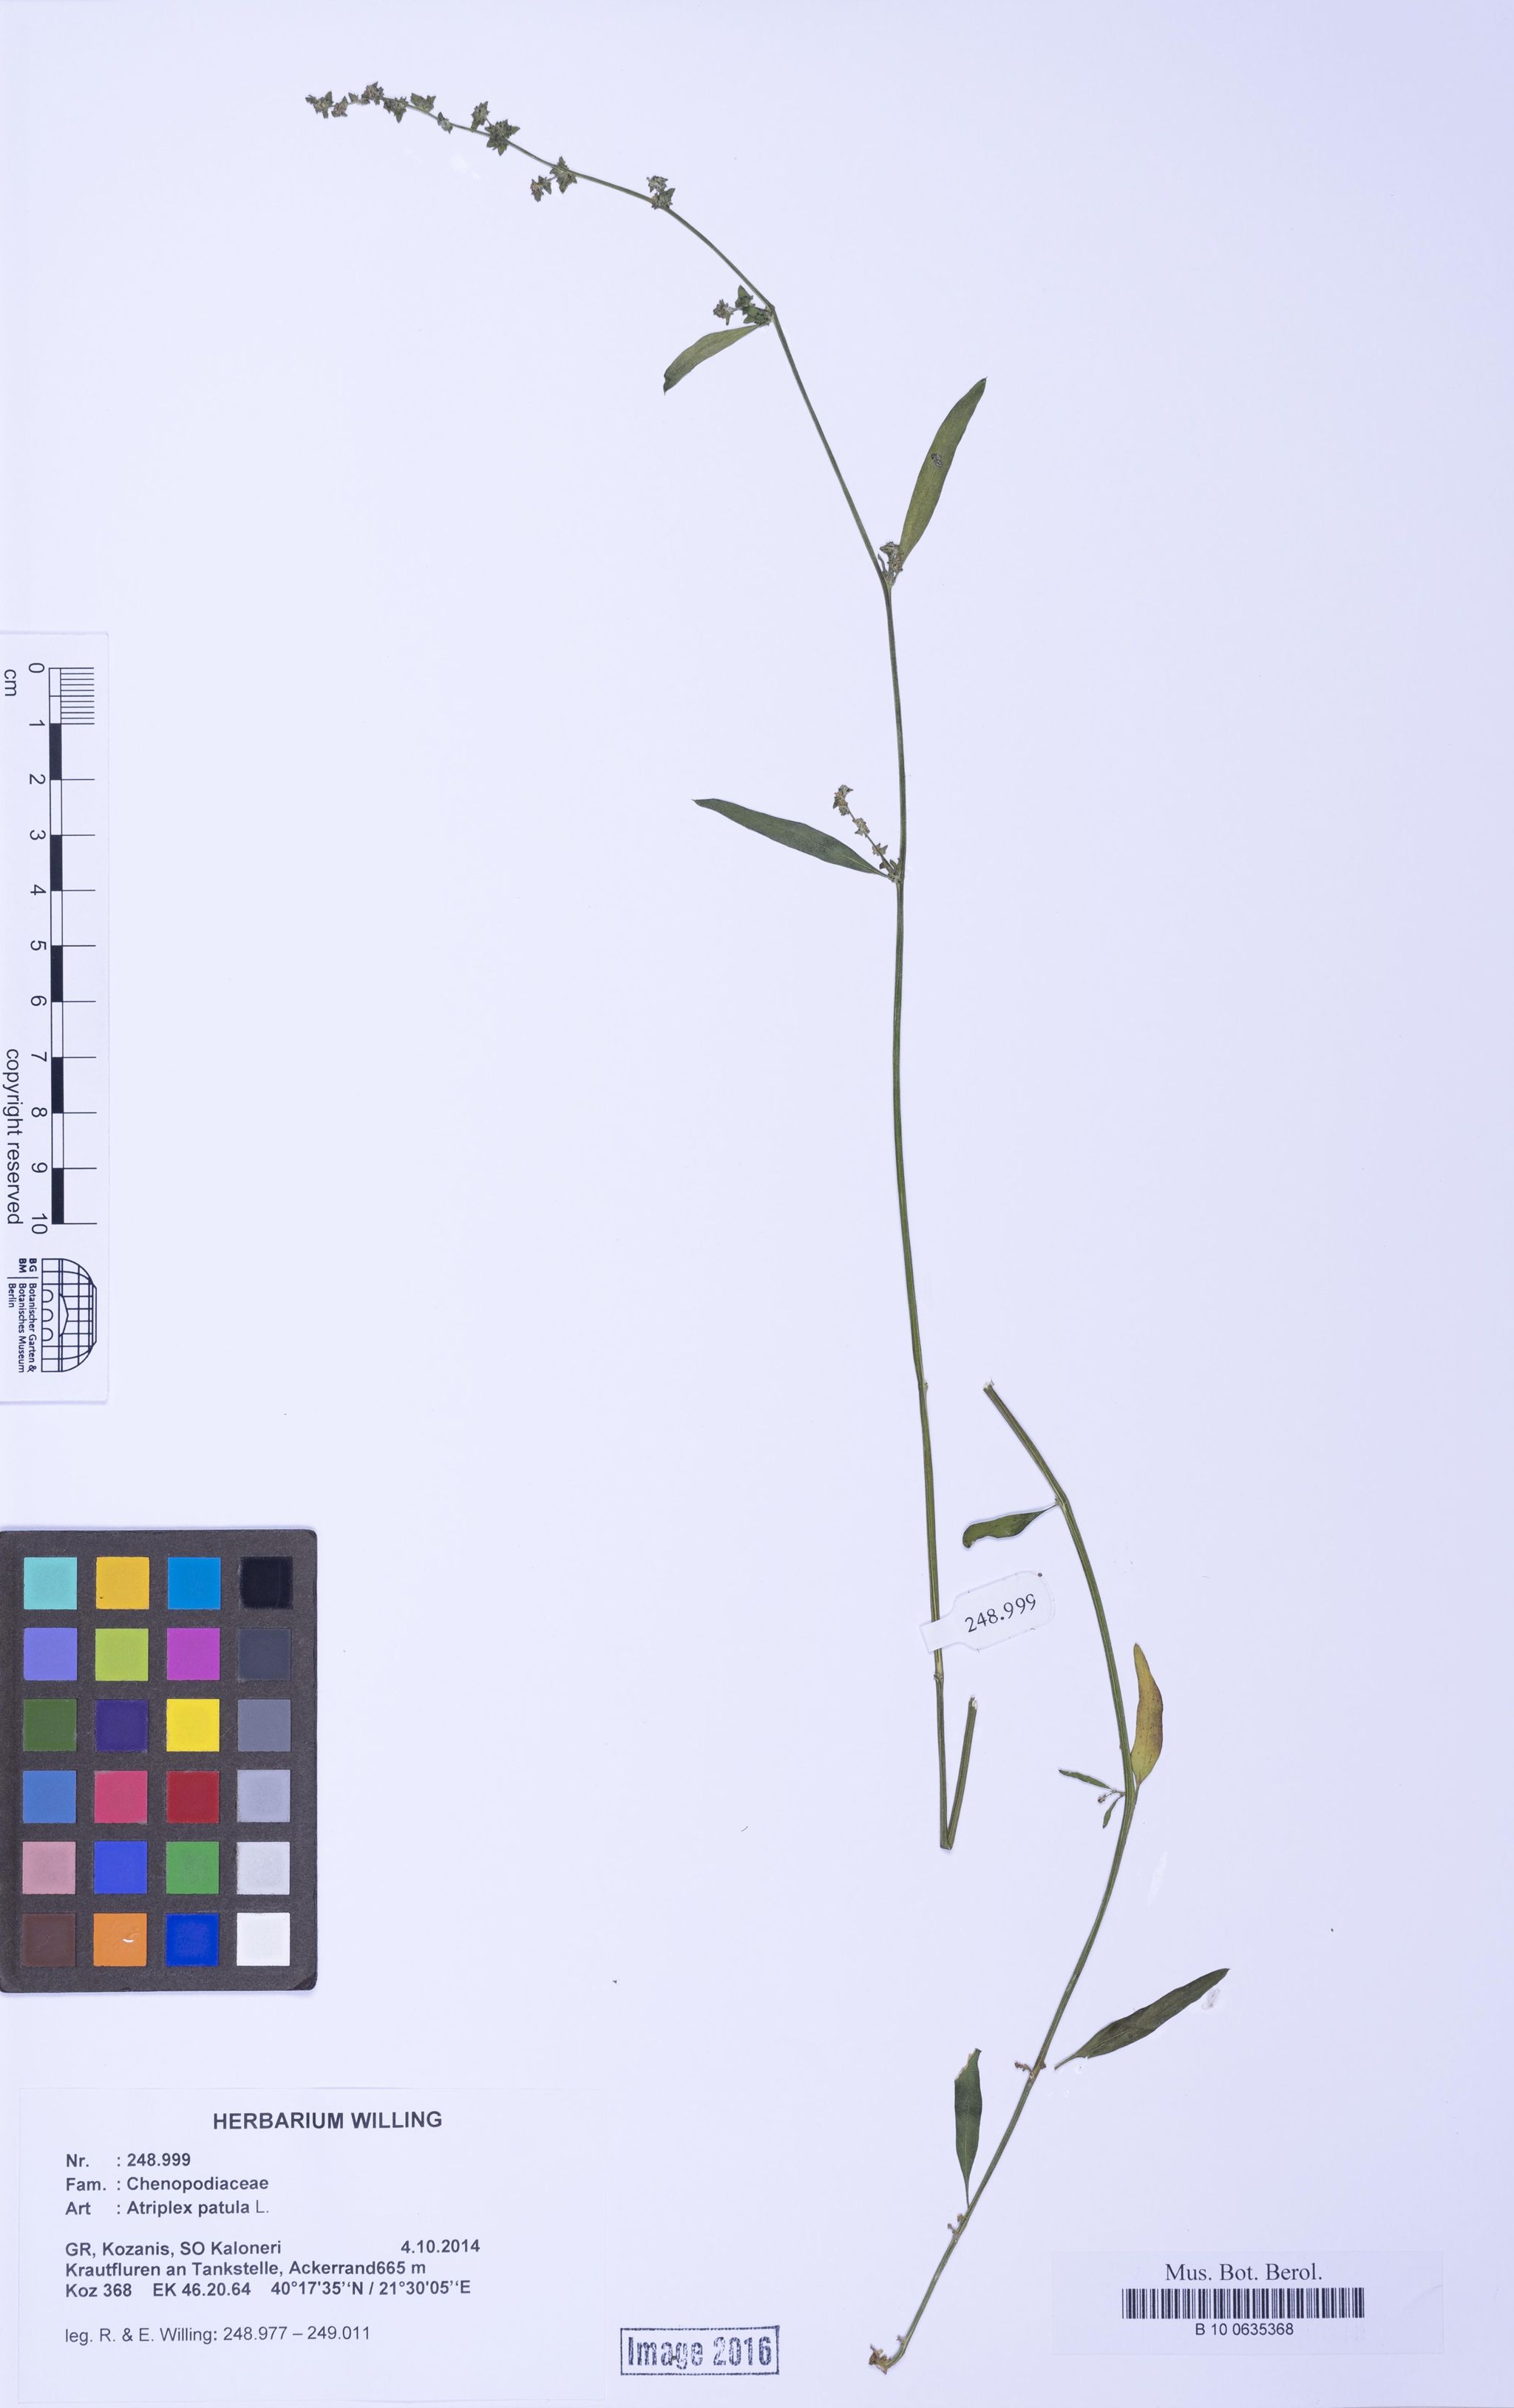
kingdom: Plantae
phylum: Tracheophyta
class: Magnoliopsida
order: Caryophyllales
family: Amaranthaceae
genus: Atriplex
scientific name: Atriplex patula
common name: Common orache
